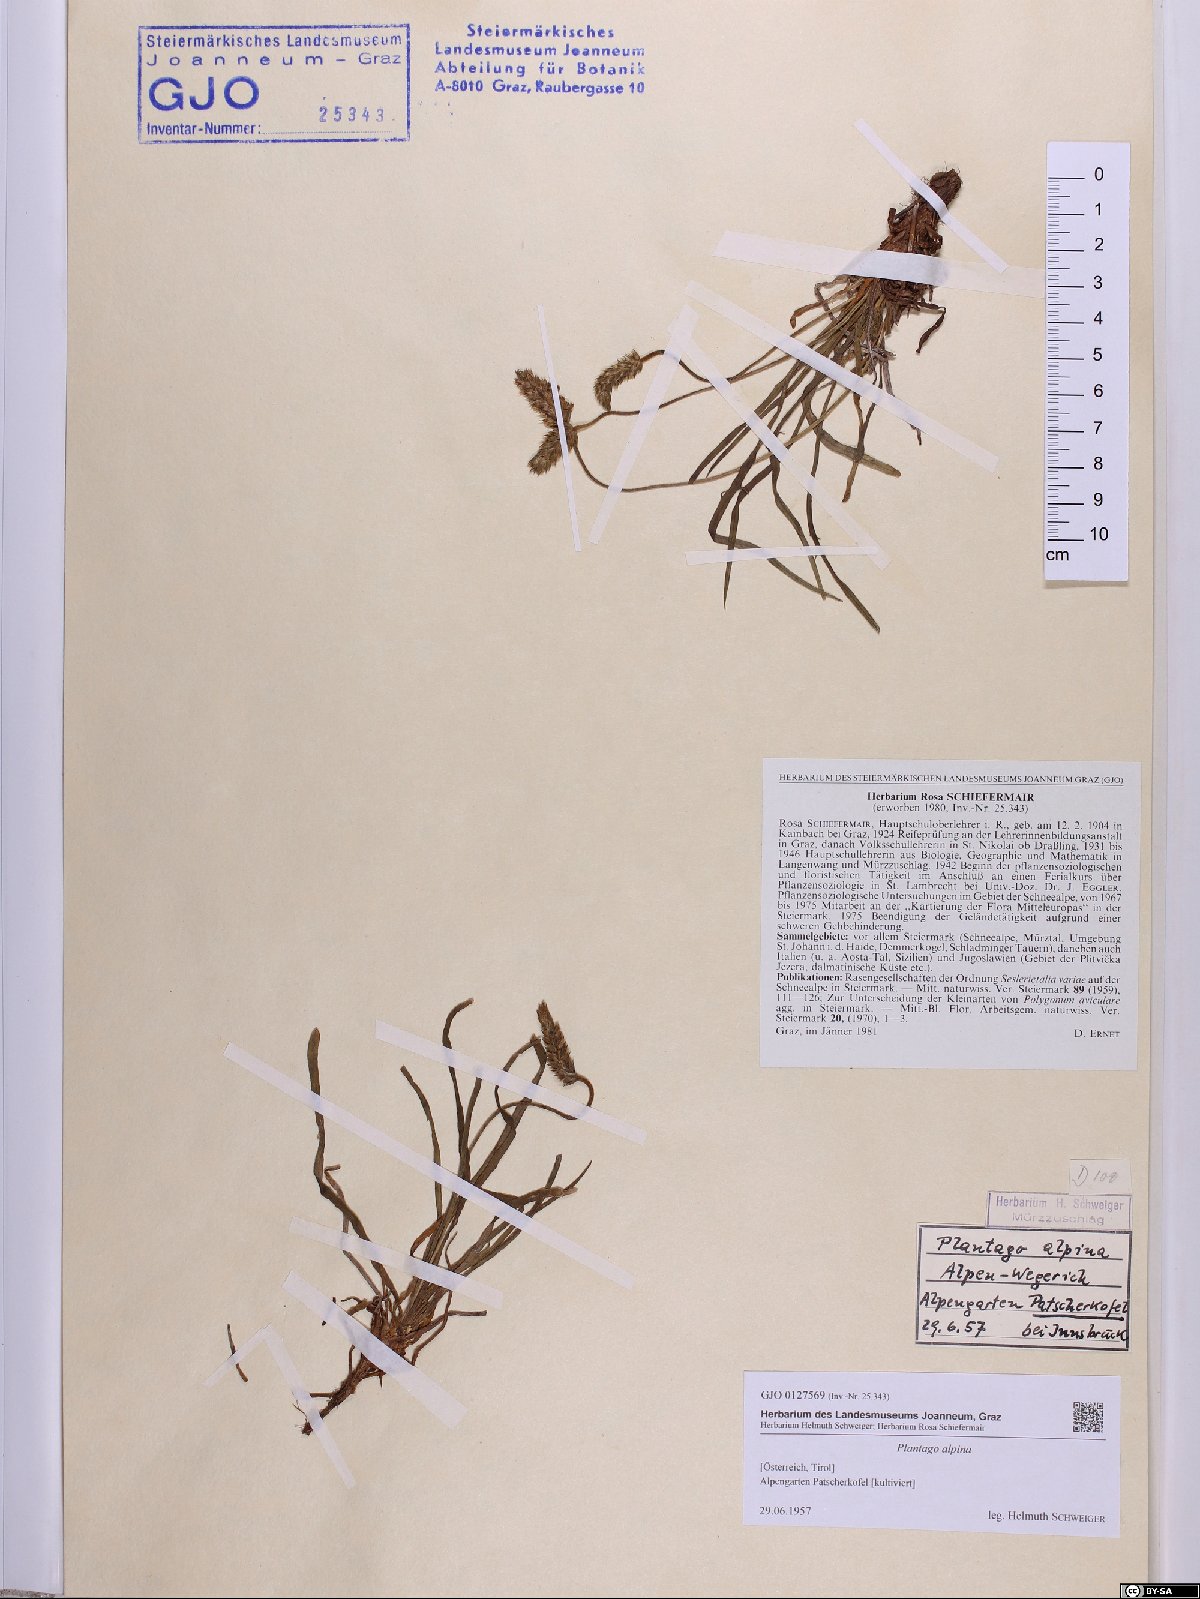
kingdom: Plantae
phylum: Tracheophyta
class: Magnoliopsida
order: Lamiales
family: Plantaginaceae
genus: Plantago
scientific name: Plantago alpina
